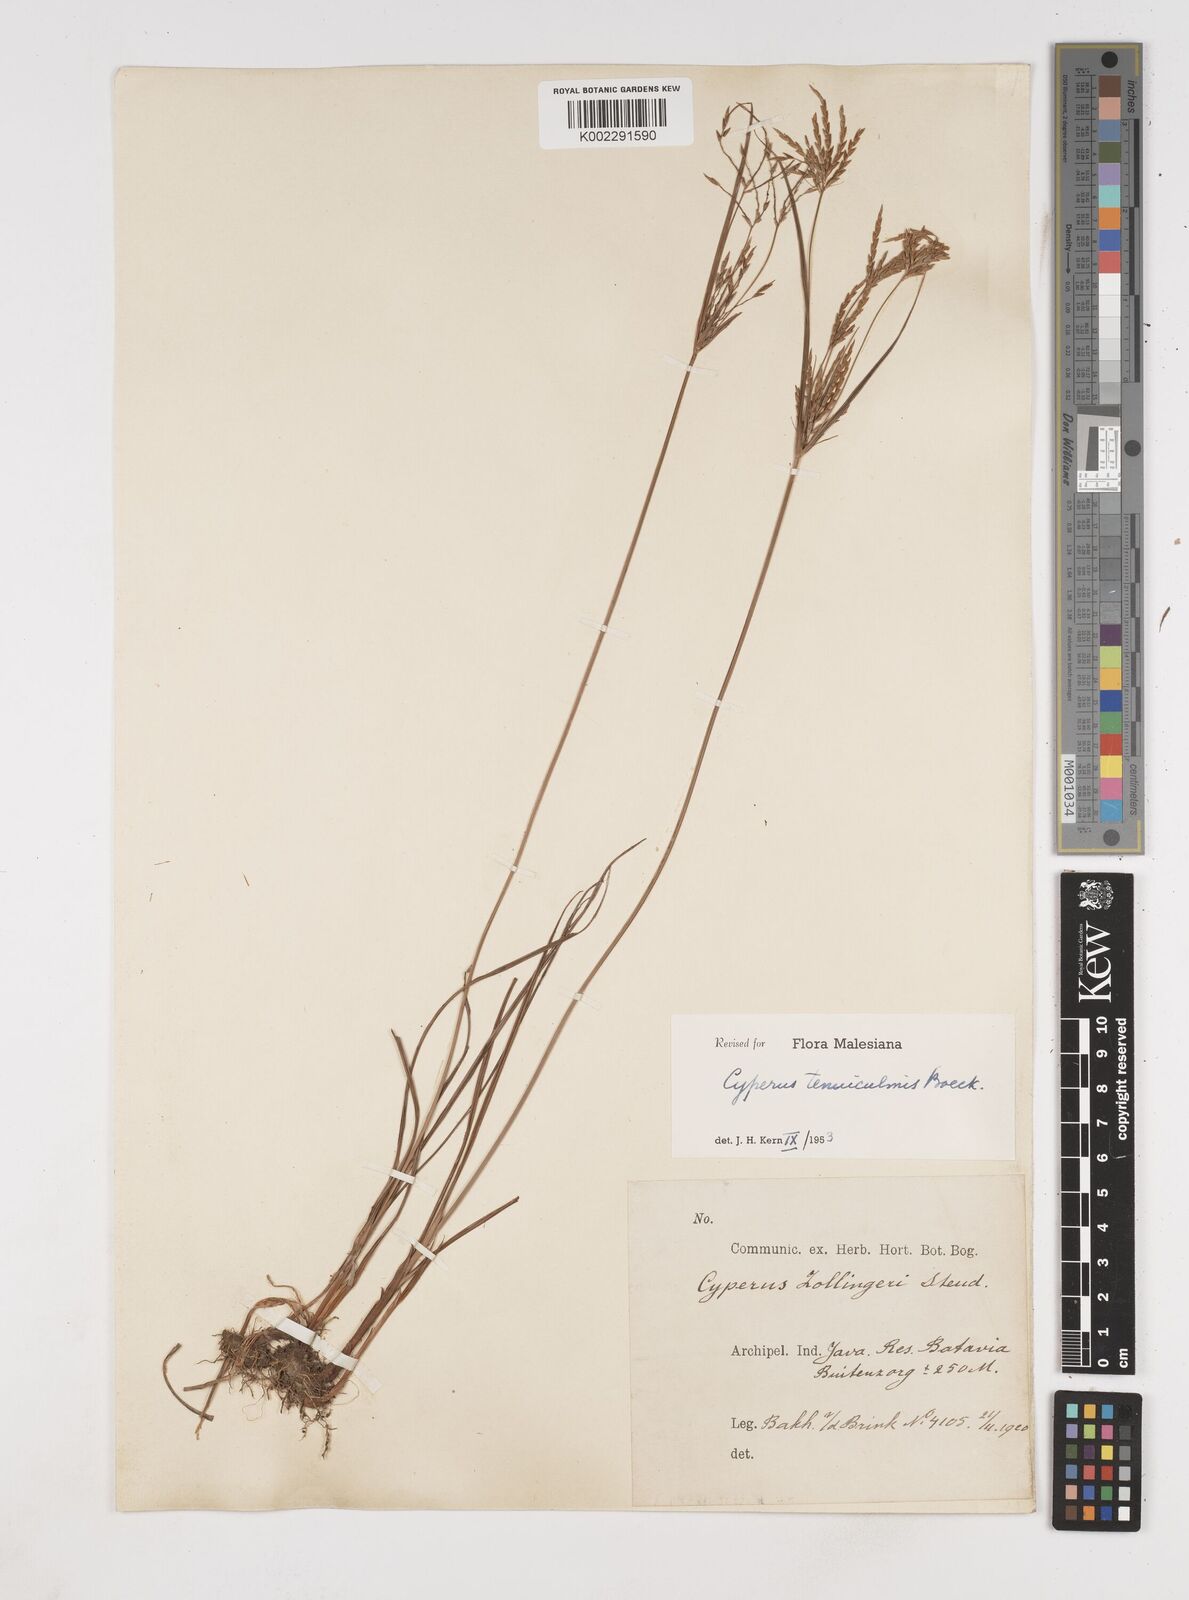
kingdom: Plantae
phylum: Tracheophyta
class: Liliopsida
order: Poales
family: Cyperaceae
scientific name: Cyperaceae
